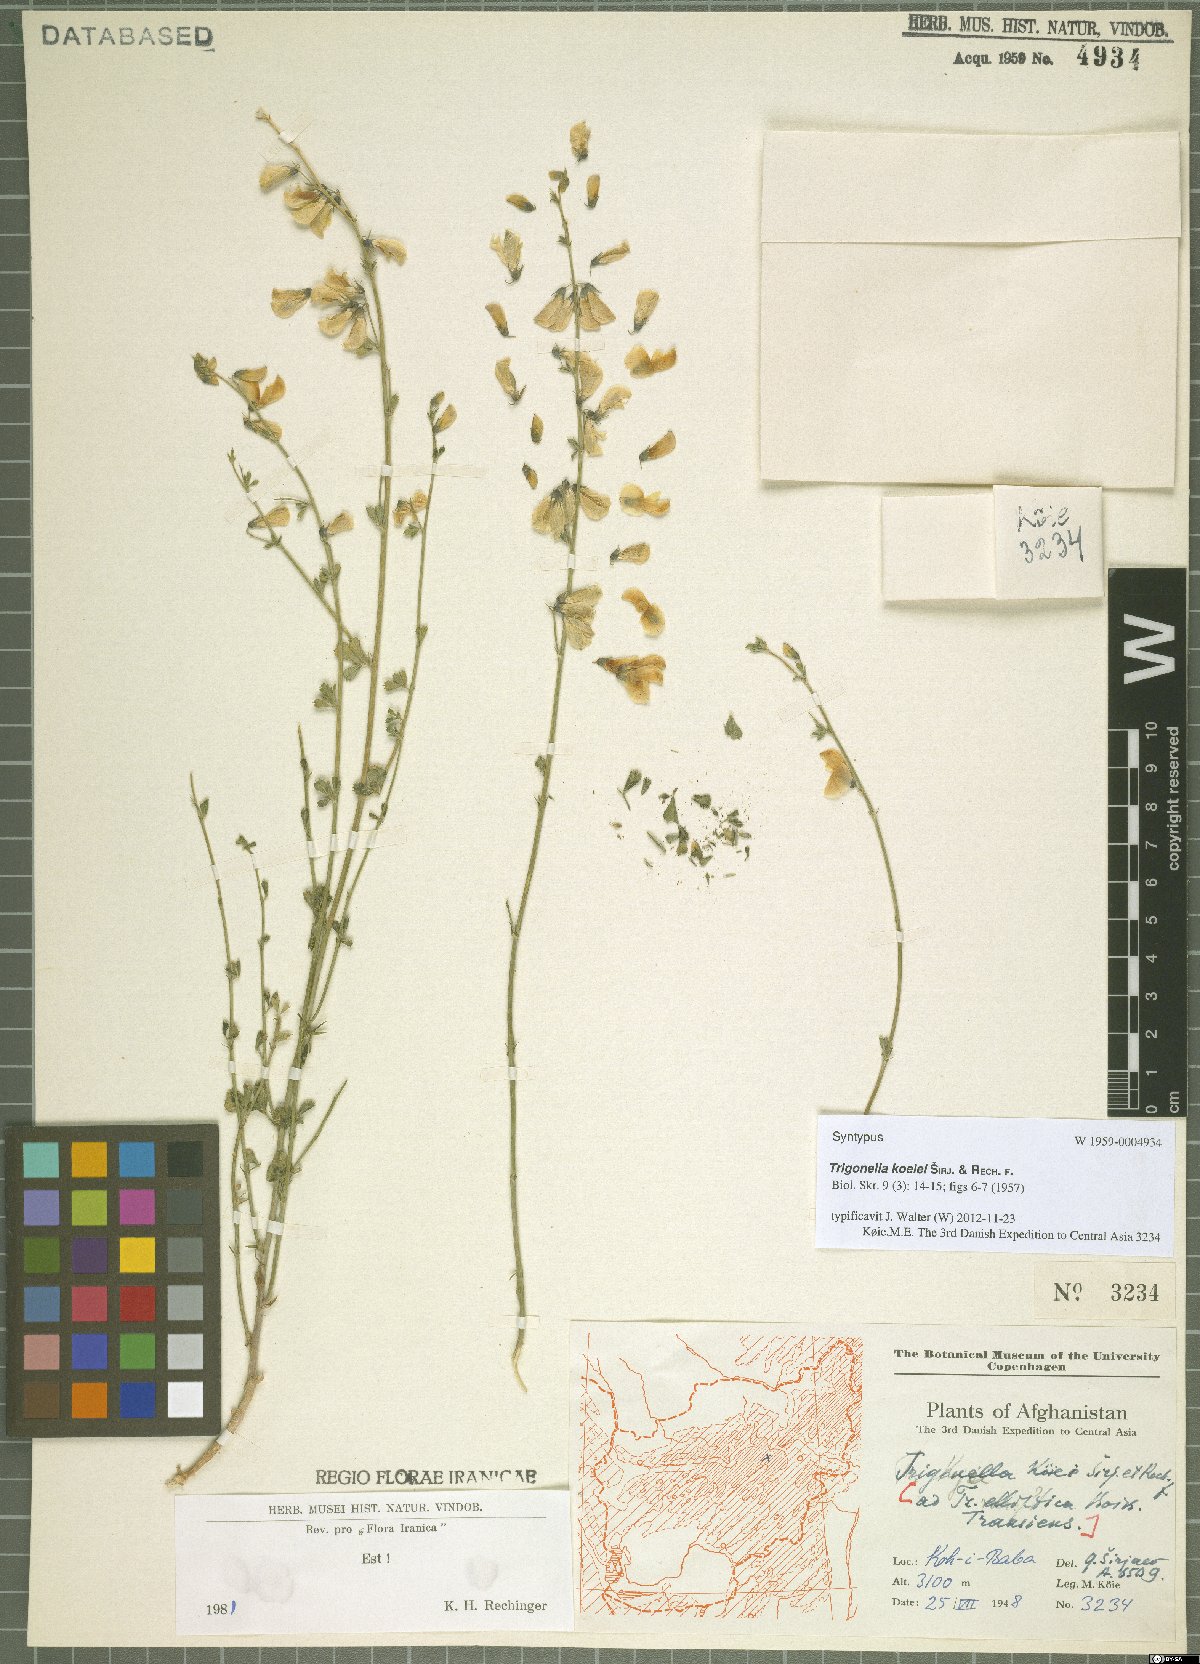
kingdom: Plantae
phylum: Tracheophyta
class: Magnoliopsida
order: Fabales
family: Fabaceae
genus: Trigonella
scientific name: Trigonella koeiei
